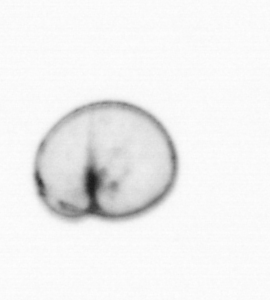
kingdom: Chromista
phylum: Myzozoa
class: Dinophyceae
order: Noctilucales
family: Noctilucaceae
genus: Noctiluca
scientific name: Noctiluca scintillans
